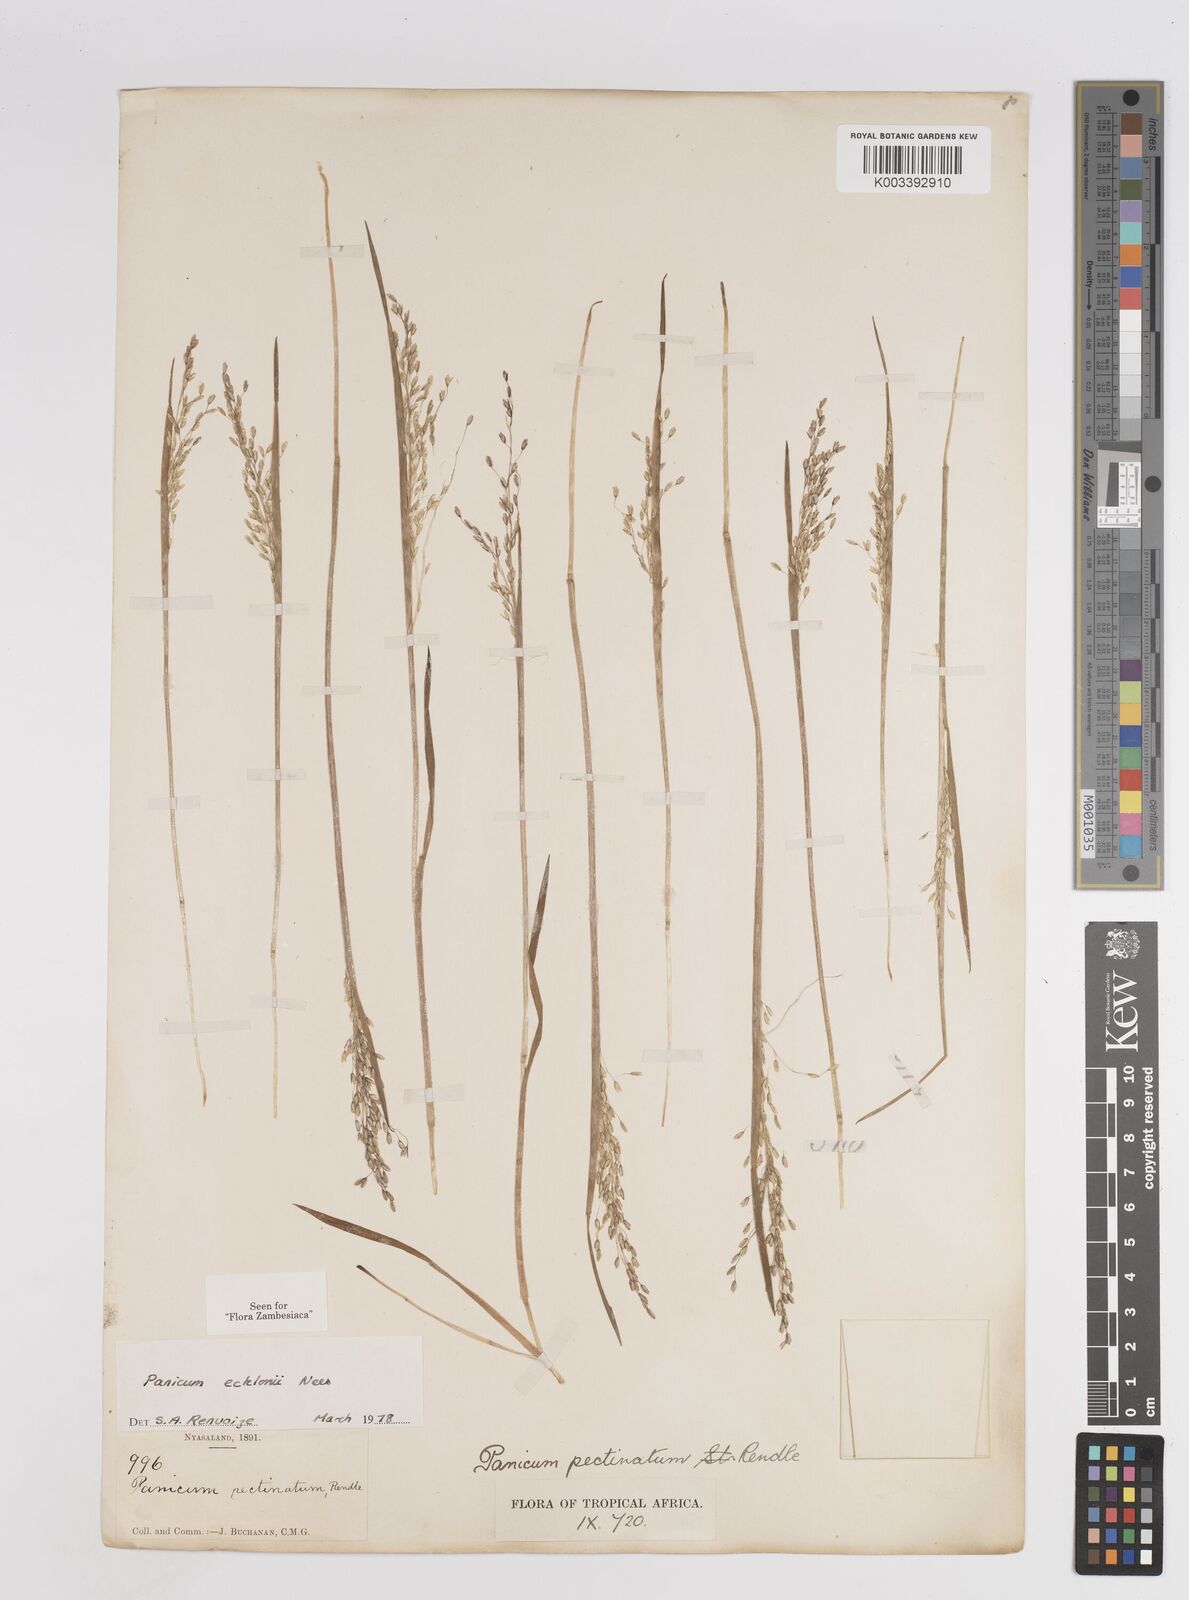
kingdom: Plantae
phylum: Tracheophyta
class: Liliopsida
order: Poales
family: Poaceae
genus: Adenochloa
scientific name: Adenochloa ecklonii
